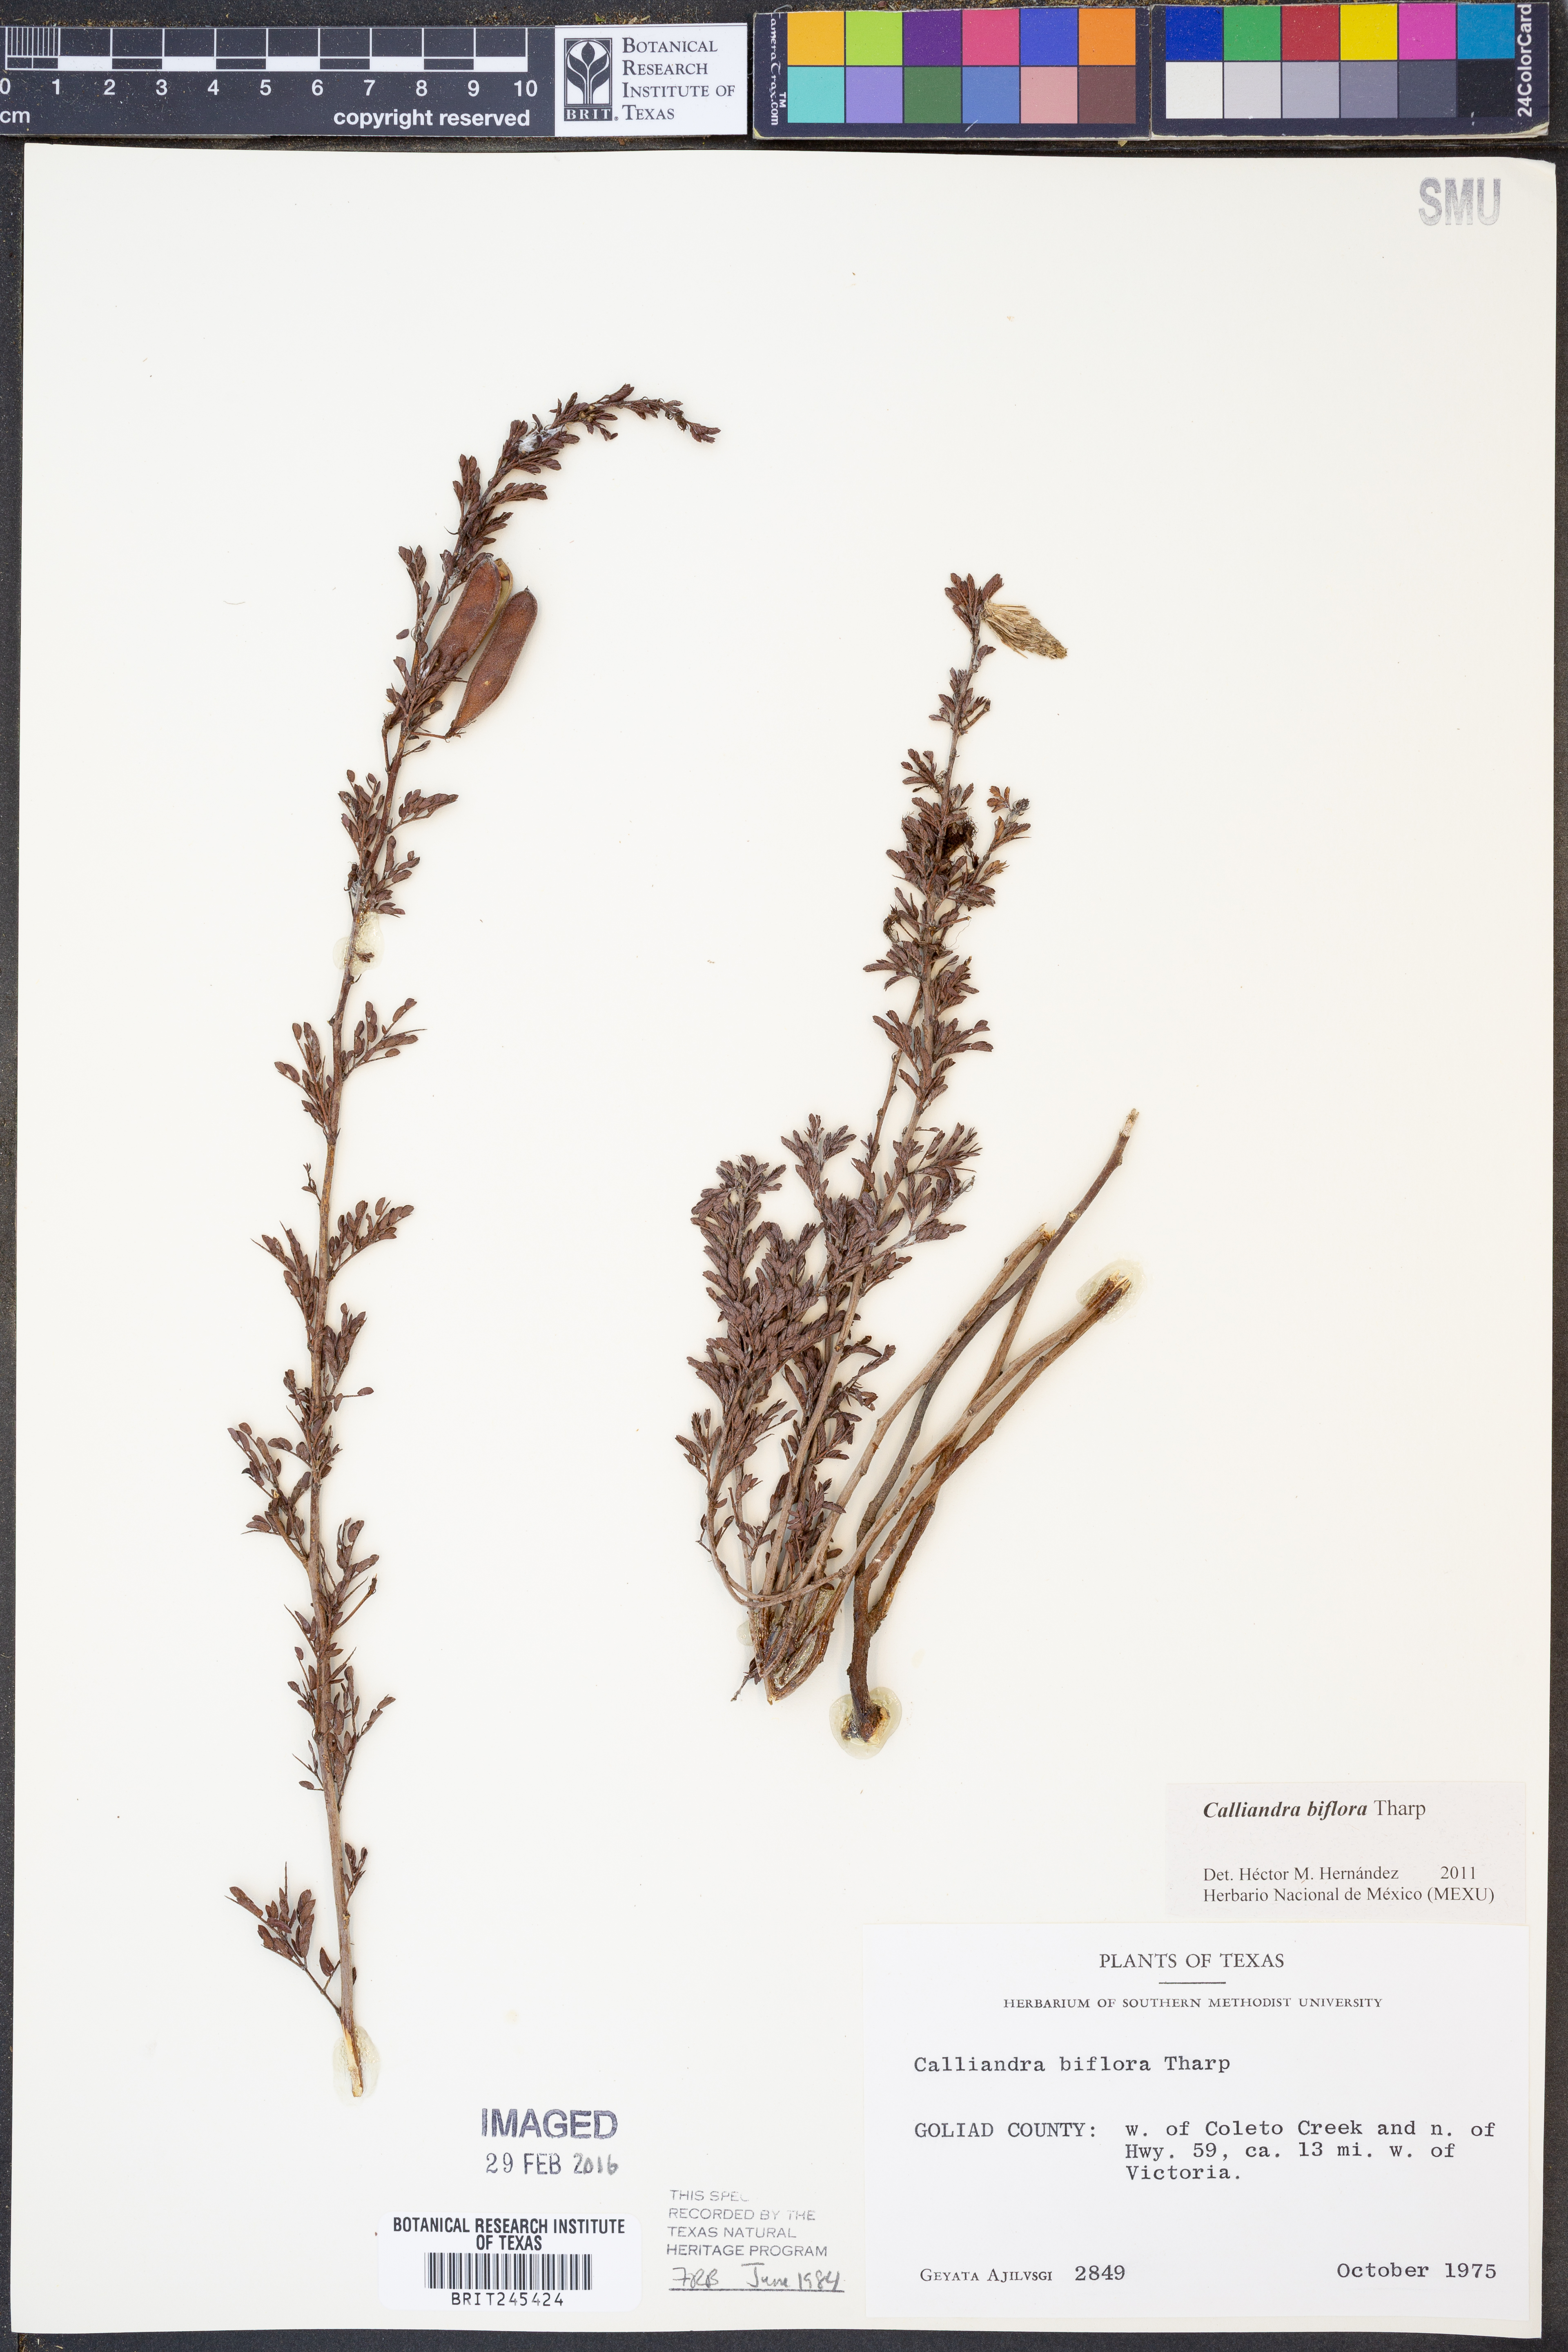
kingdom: Plantae
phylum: Tracheophyta
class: Magnoliopsida
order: Fabales
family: Fabaceae
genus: Calliandra
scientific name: Calliandra biflora
